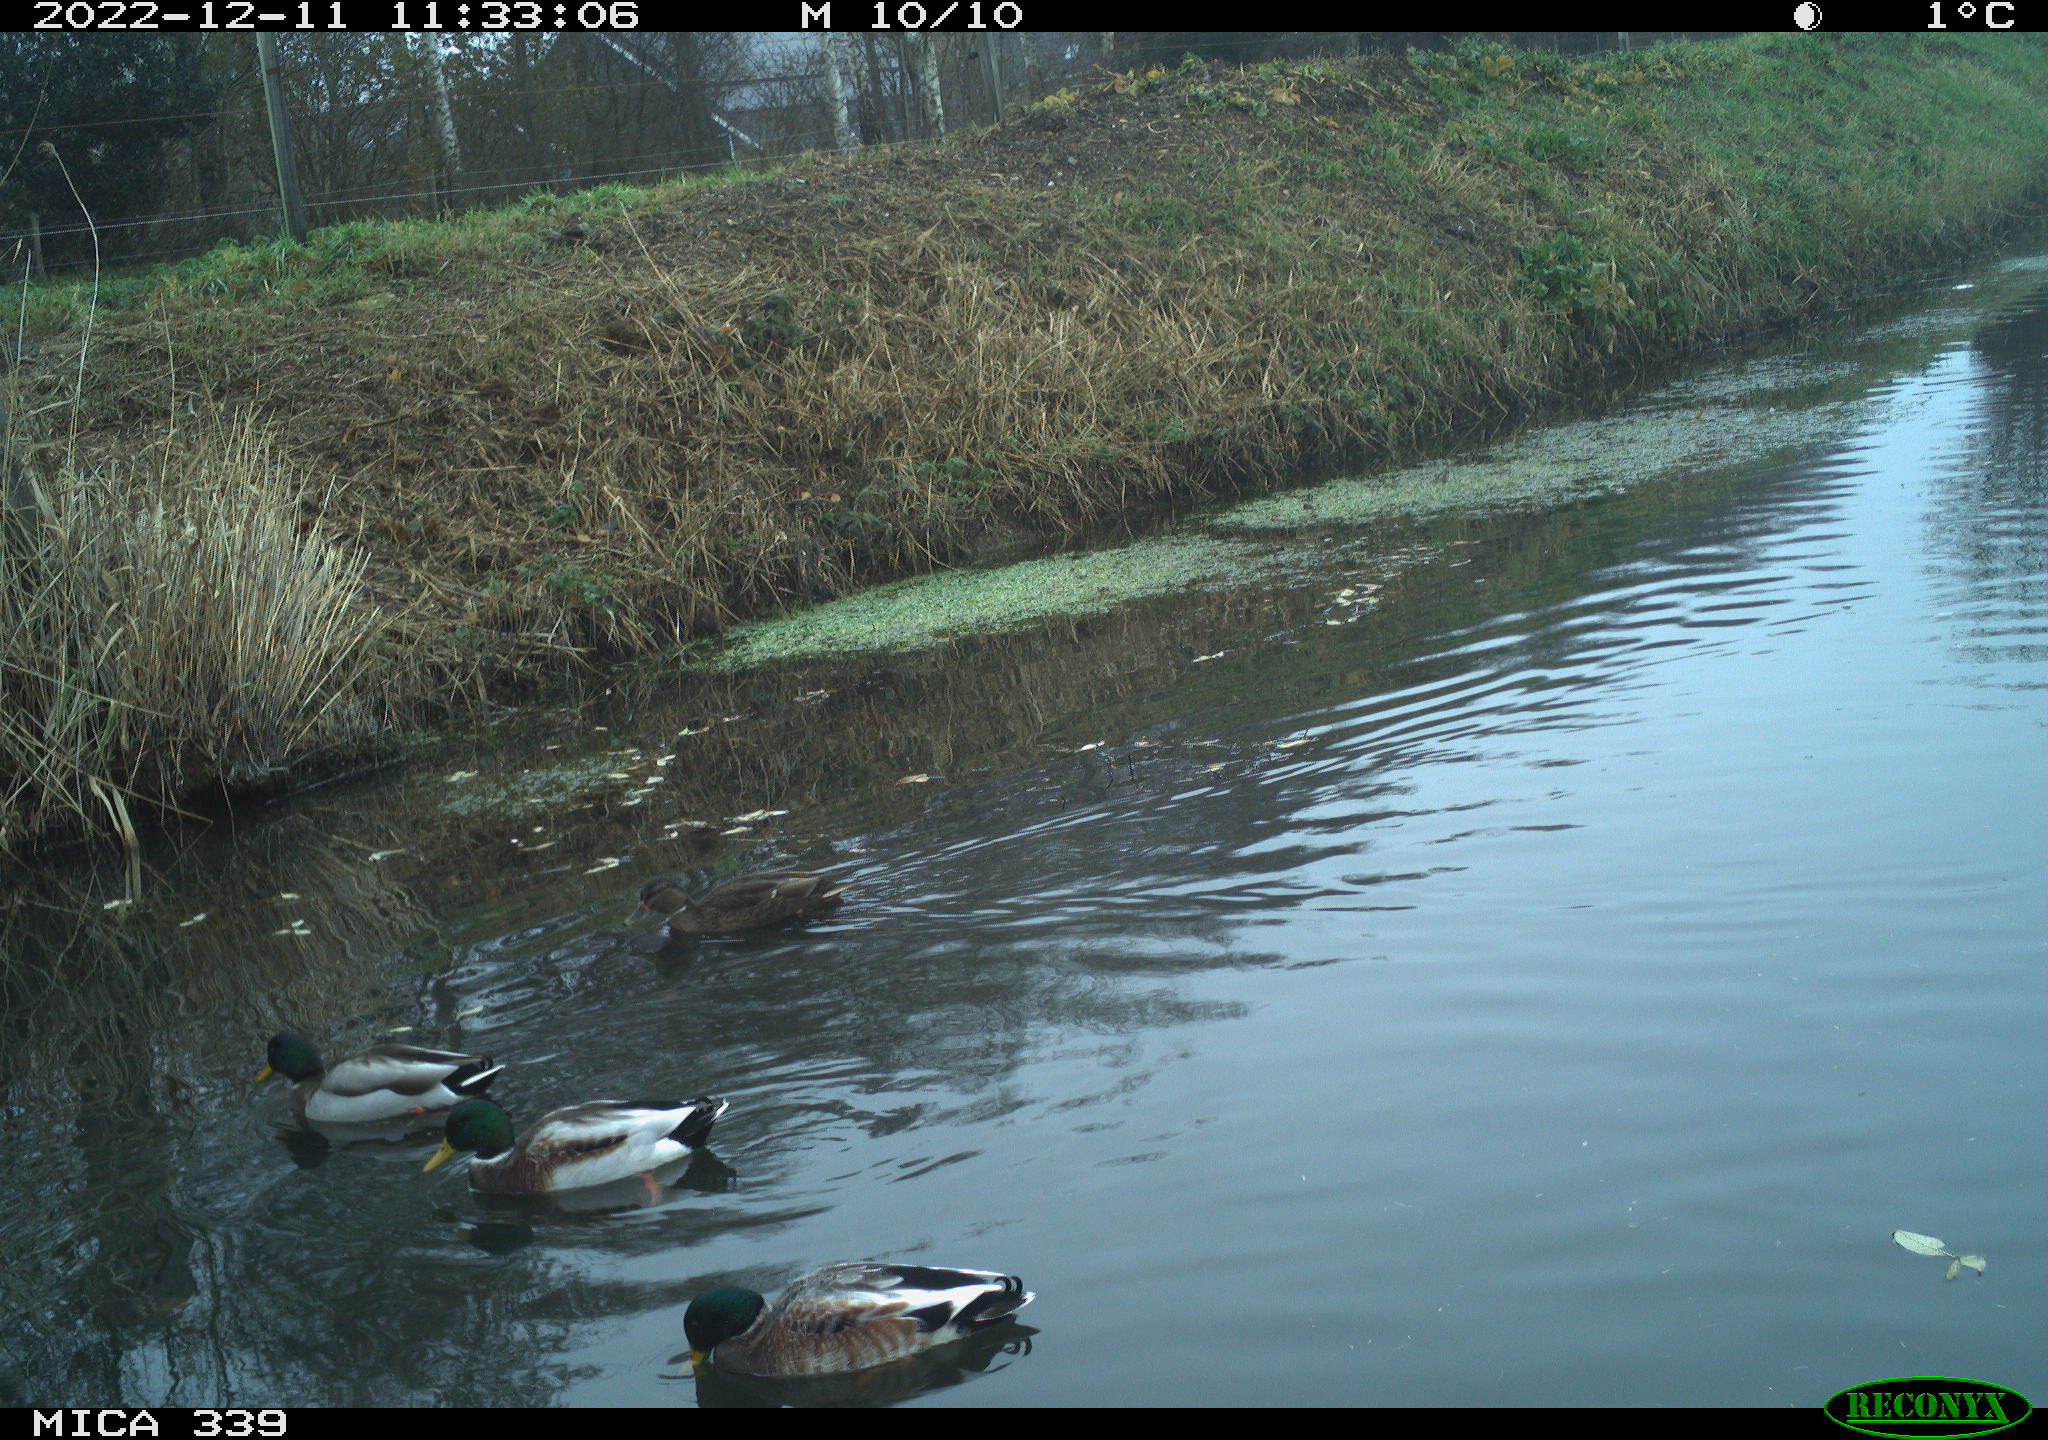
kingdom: Animalia
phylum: Chordata
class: Aves
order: Anseriformes
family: Anatidae
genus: Anas
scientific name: Anas
